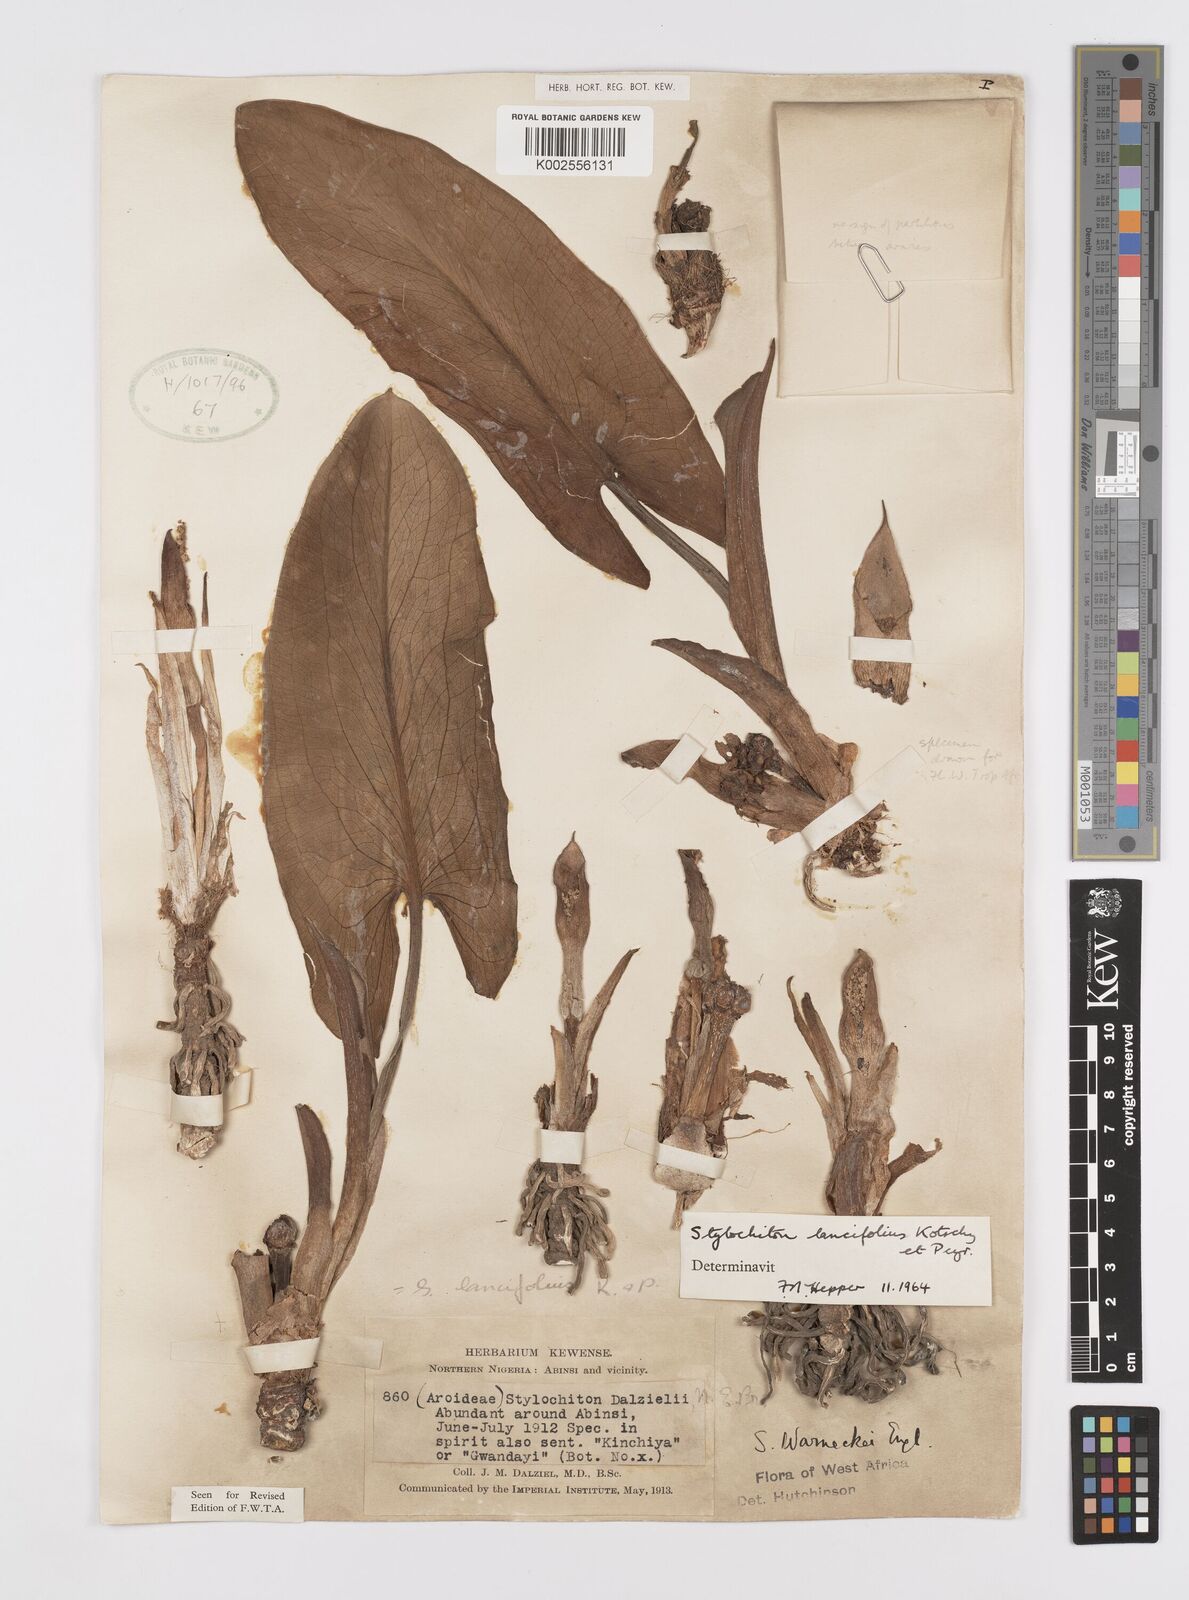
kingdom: Plantae
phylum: Tracheophyta
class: Liliopsida
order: Alismatales
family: Araceae
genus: Stylochaeton
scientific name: Stylochaeton lancifolium
